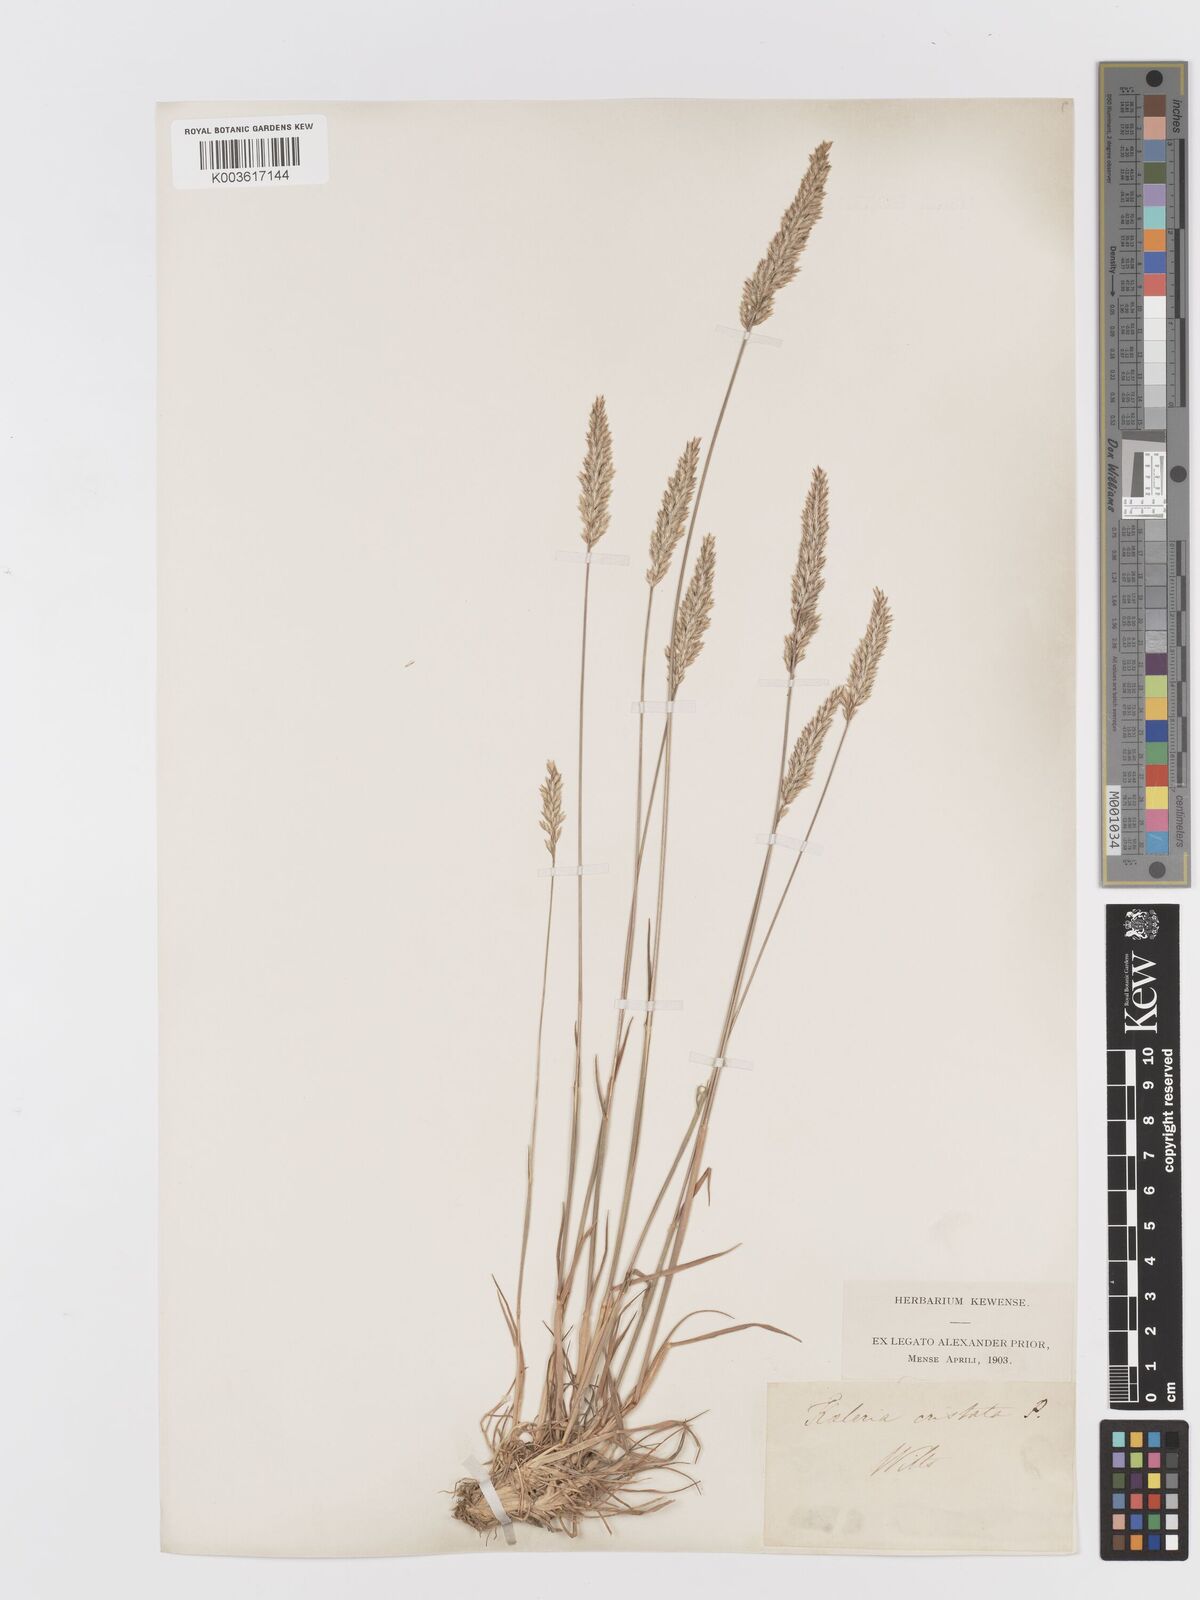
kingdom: Plantae
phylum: Tracheophyta
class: Liliopsida
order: Poales
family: Poaceae
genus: Koeleria
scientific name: Koeleria macrantha
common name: Crested hair-grass
